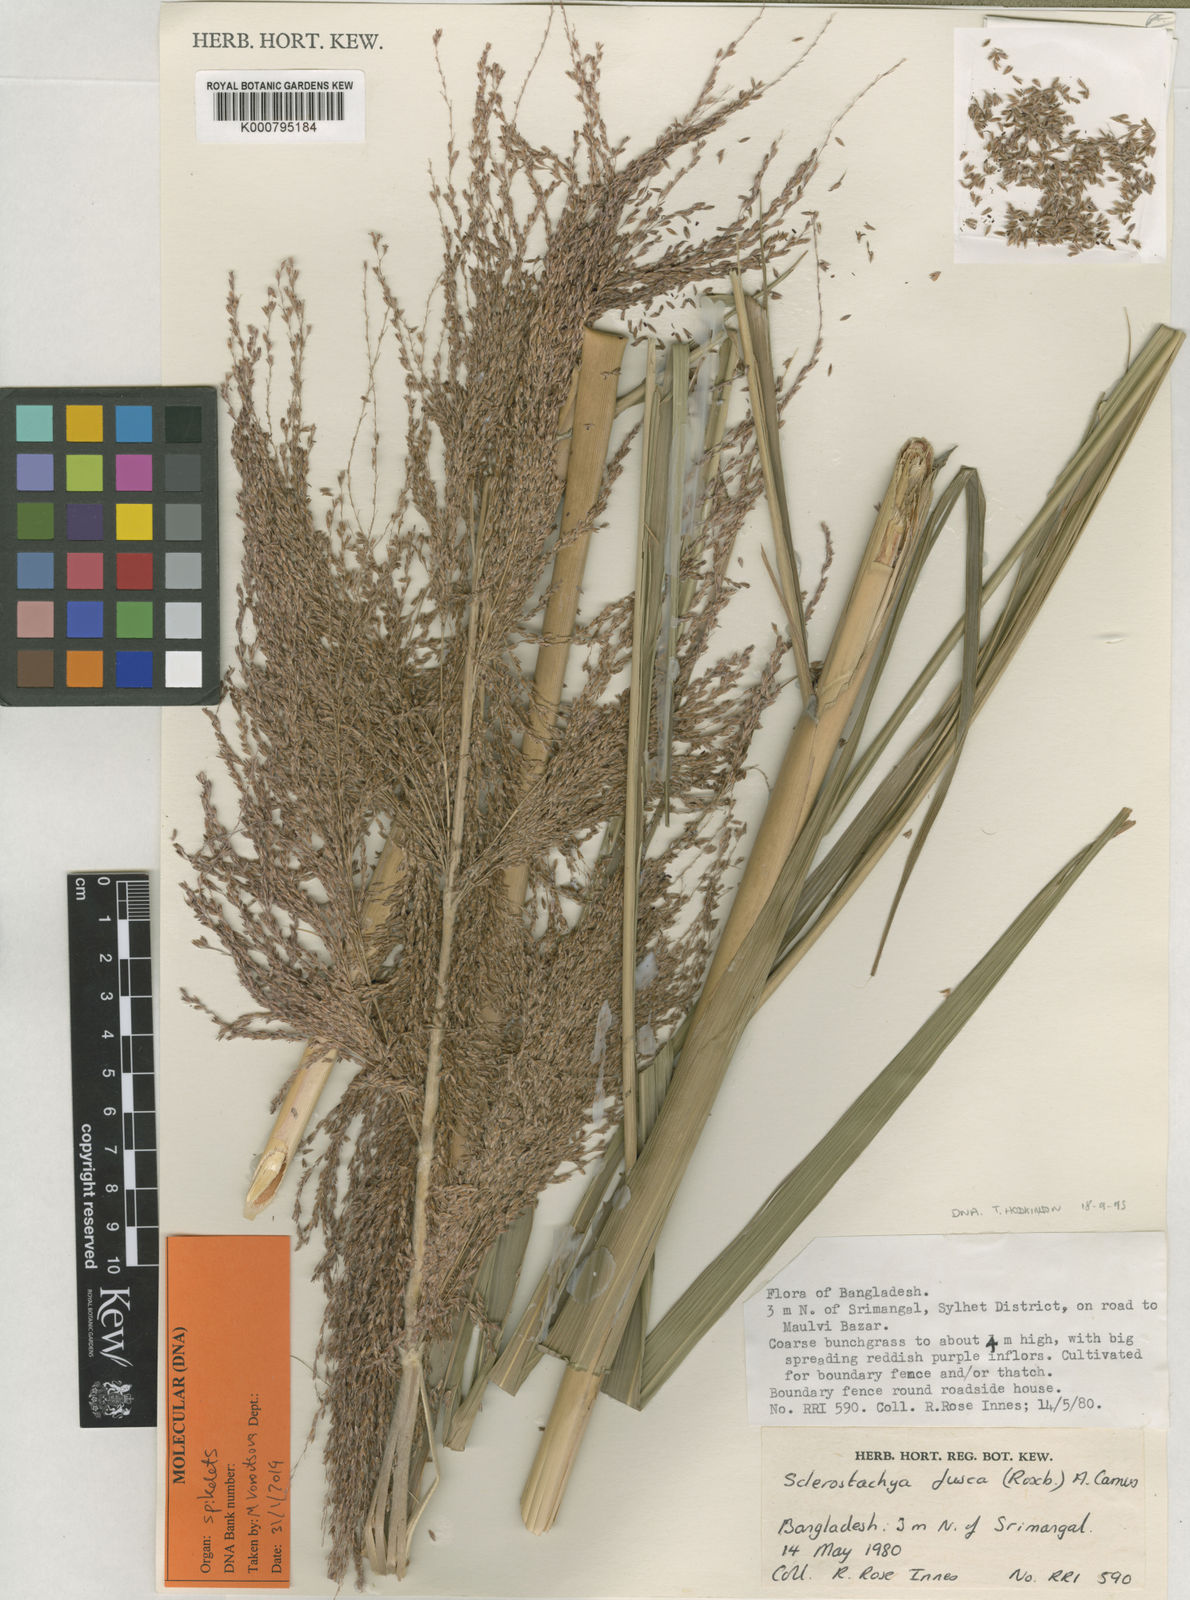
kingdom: Plantae
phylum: Tracheophyta
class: Liliopsida
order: Poales
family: Poaceae
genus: Miscanthus
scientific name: Miscanthus fuscus
